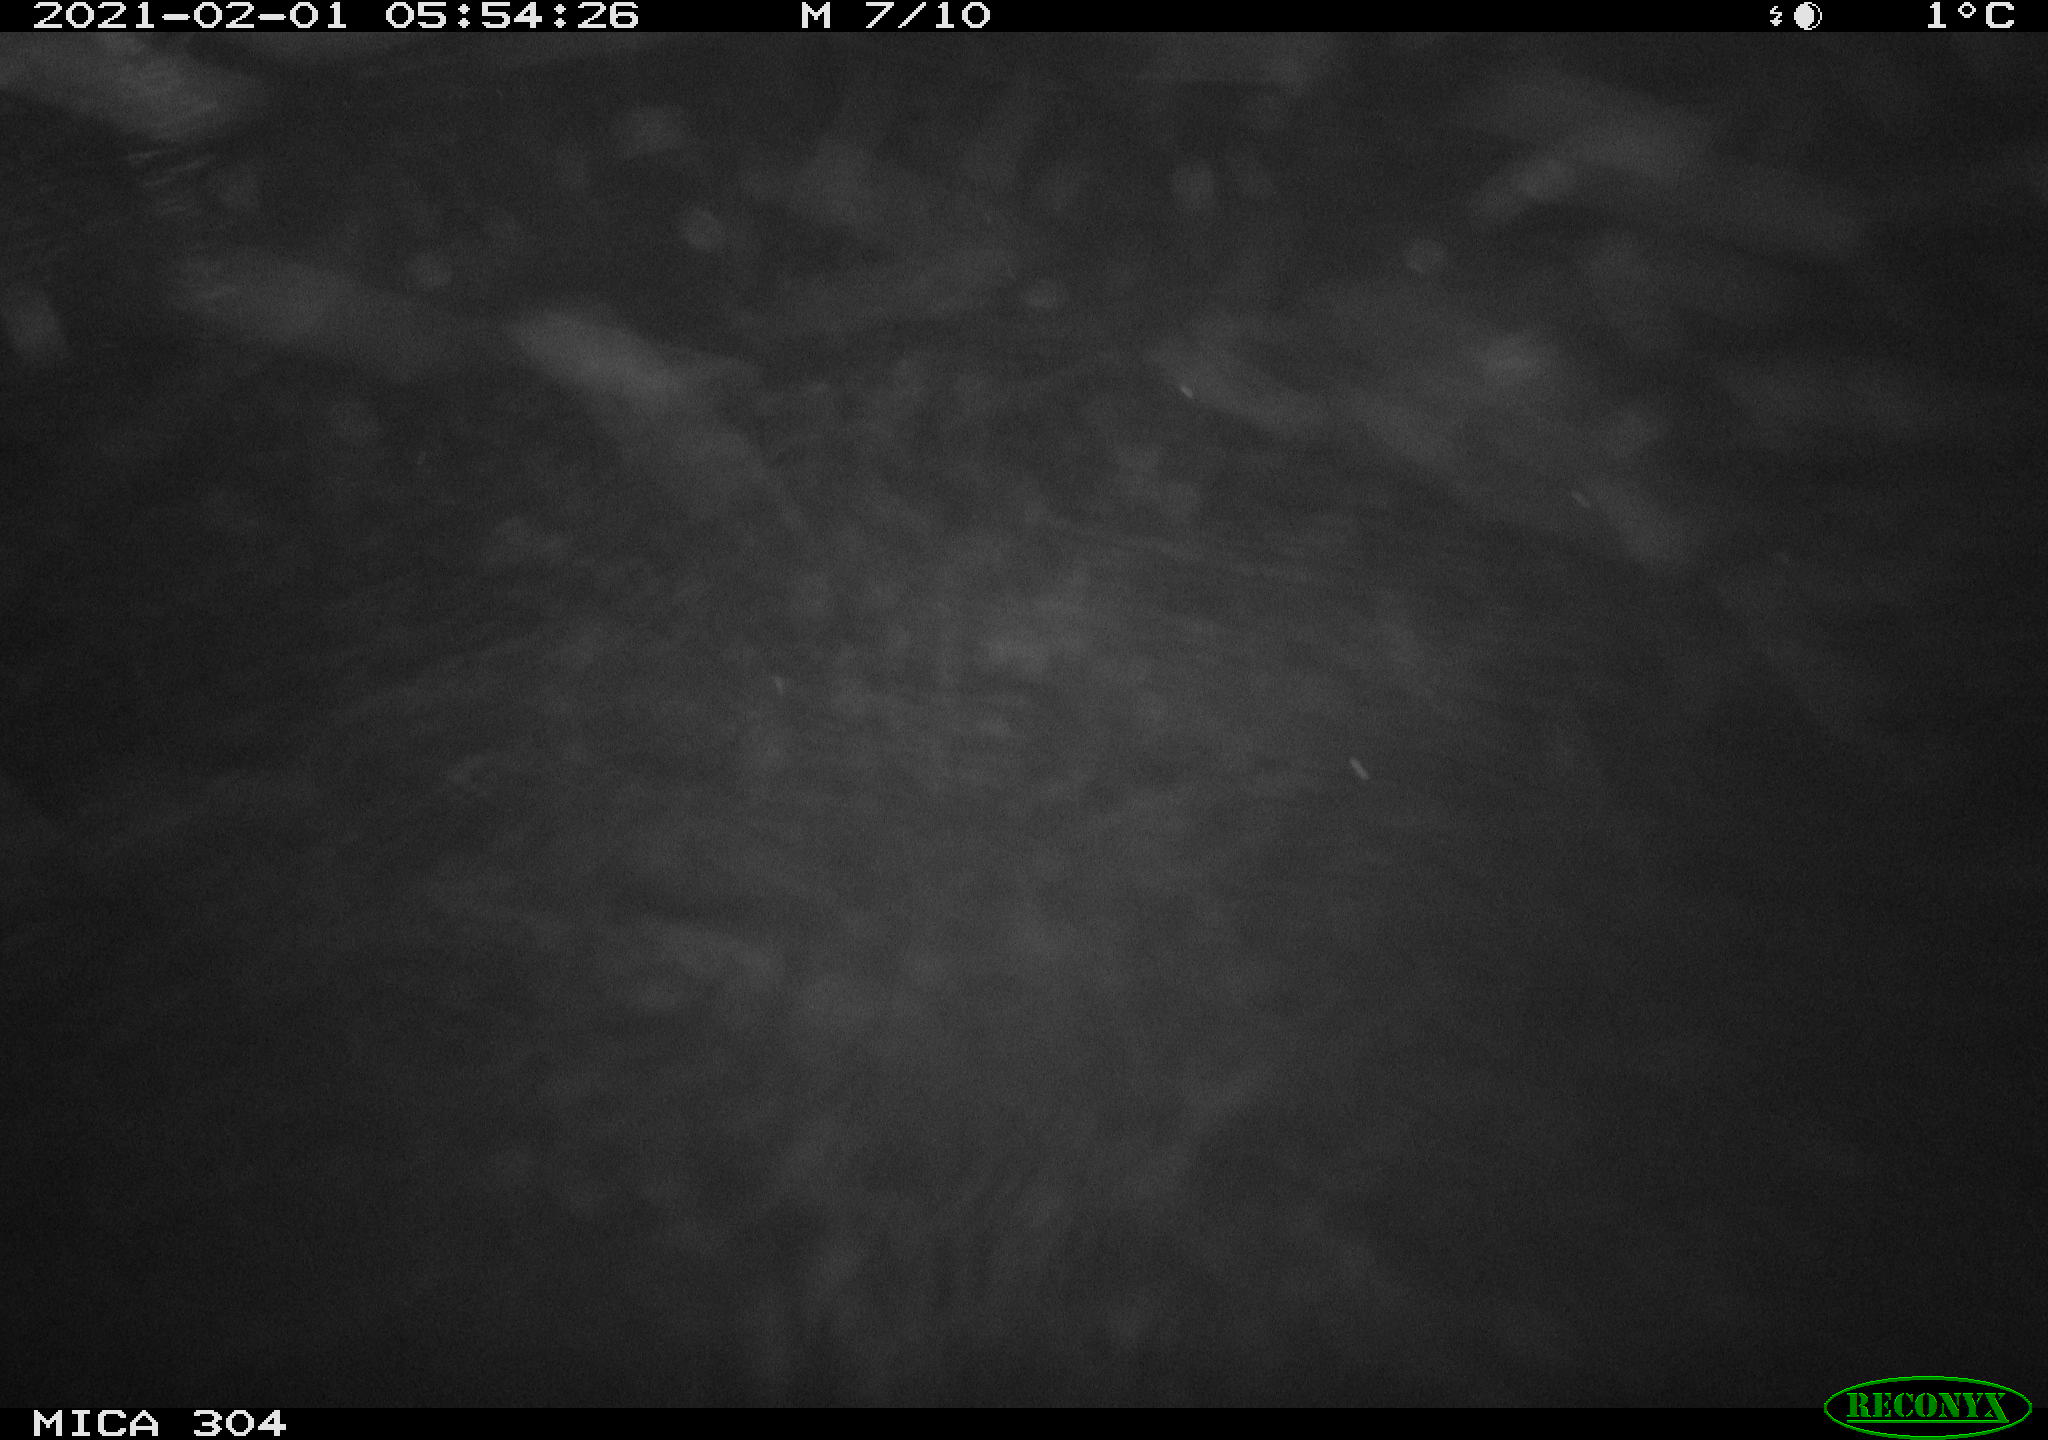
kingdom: Animalia
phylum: Chordata
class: Mammalia
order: Rodentia
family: Cricetidae
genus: Ondatra
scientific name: Ondatra zibethicus
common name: Muskrat
